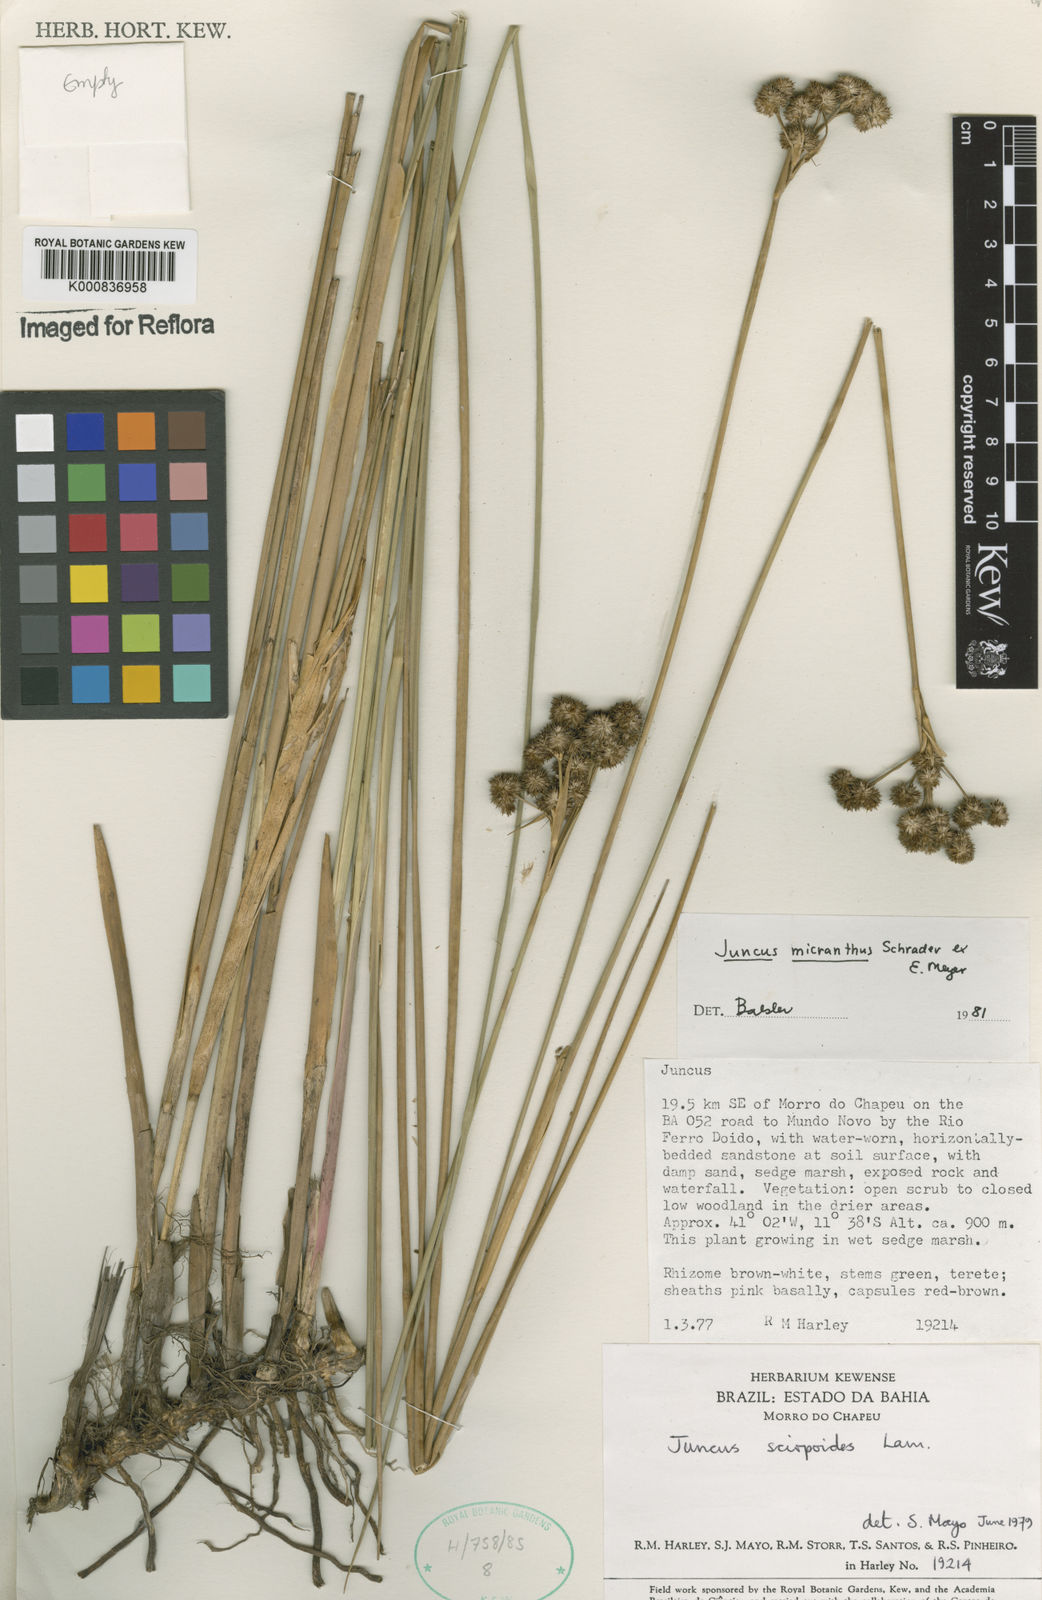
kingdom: Plantae
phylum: Tracheophyta
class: Liliopsida
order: Poales
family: Juncaceae
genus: Juncus
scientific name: Juncus
